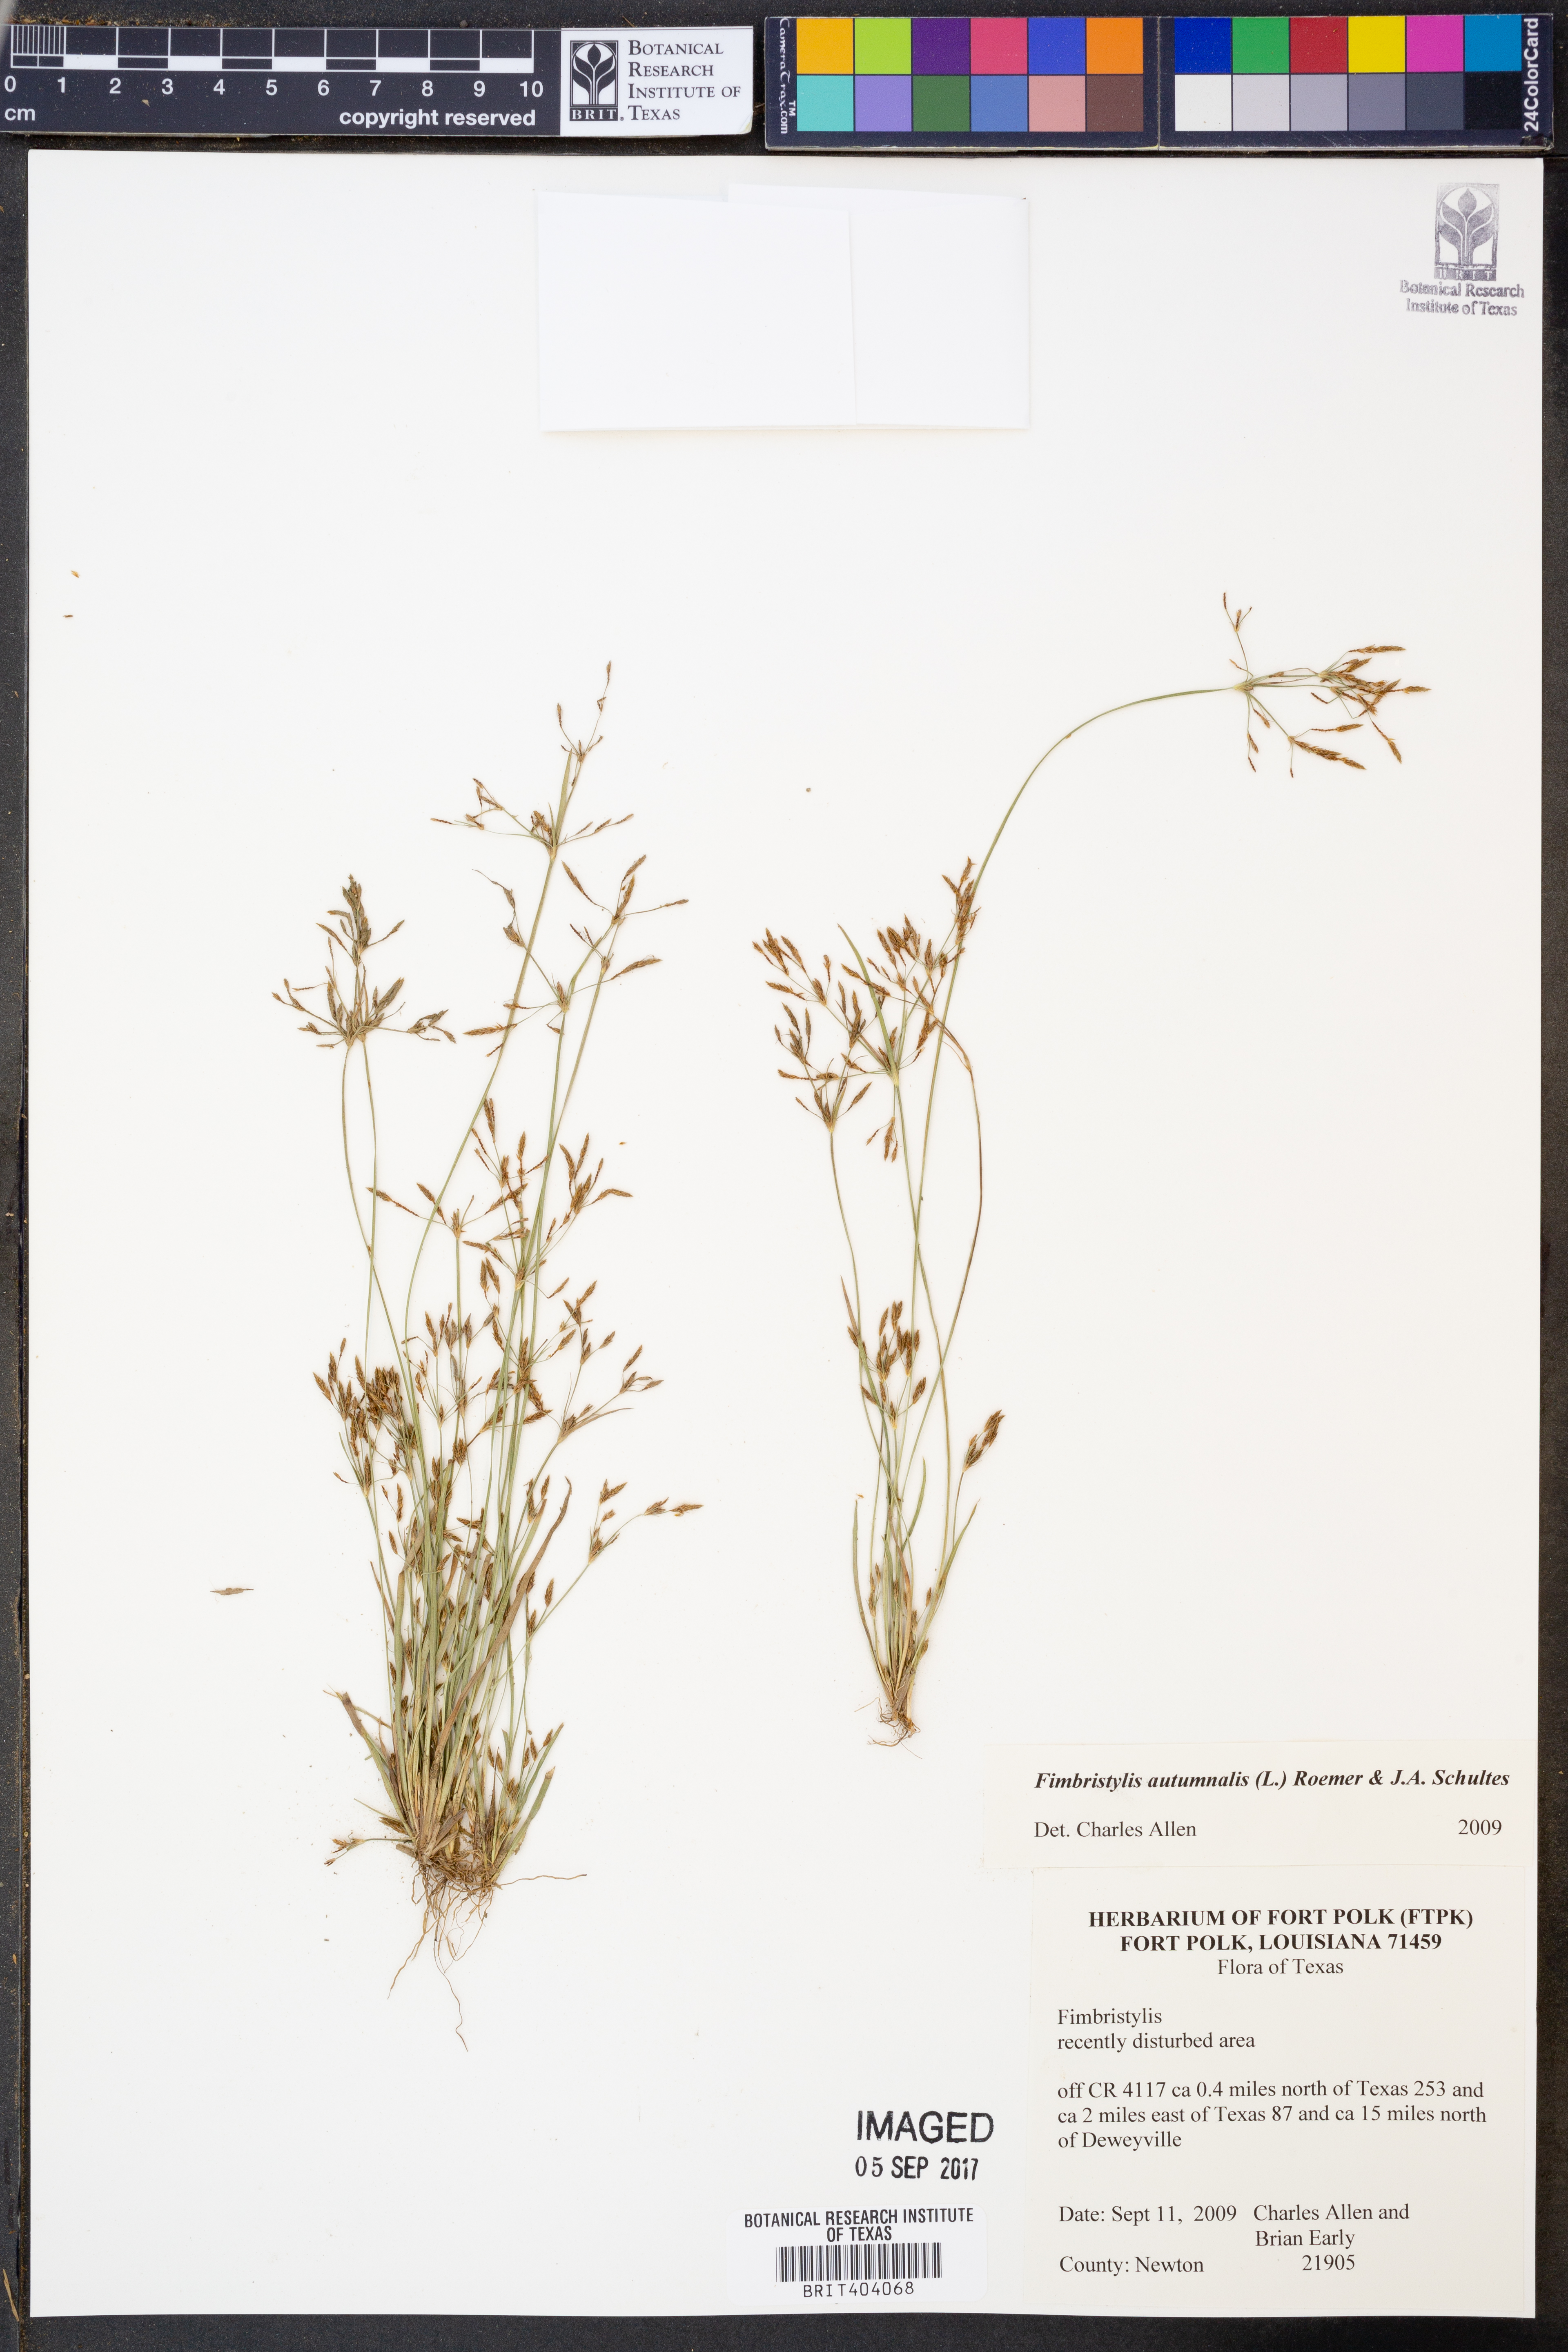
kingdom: Plantae
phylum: Tracheophyta
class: Liliopsida
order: Poales
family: Cyperaceae
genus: Fimbristylis
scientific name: Fimbristylis autumnalis
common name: Slender fimbristylis
